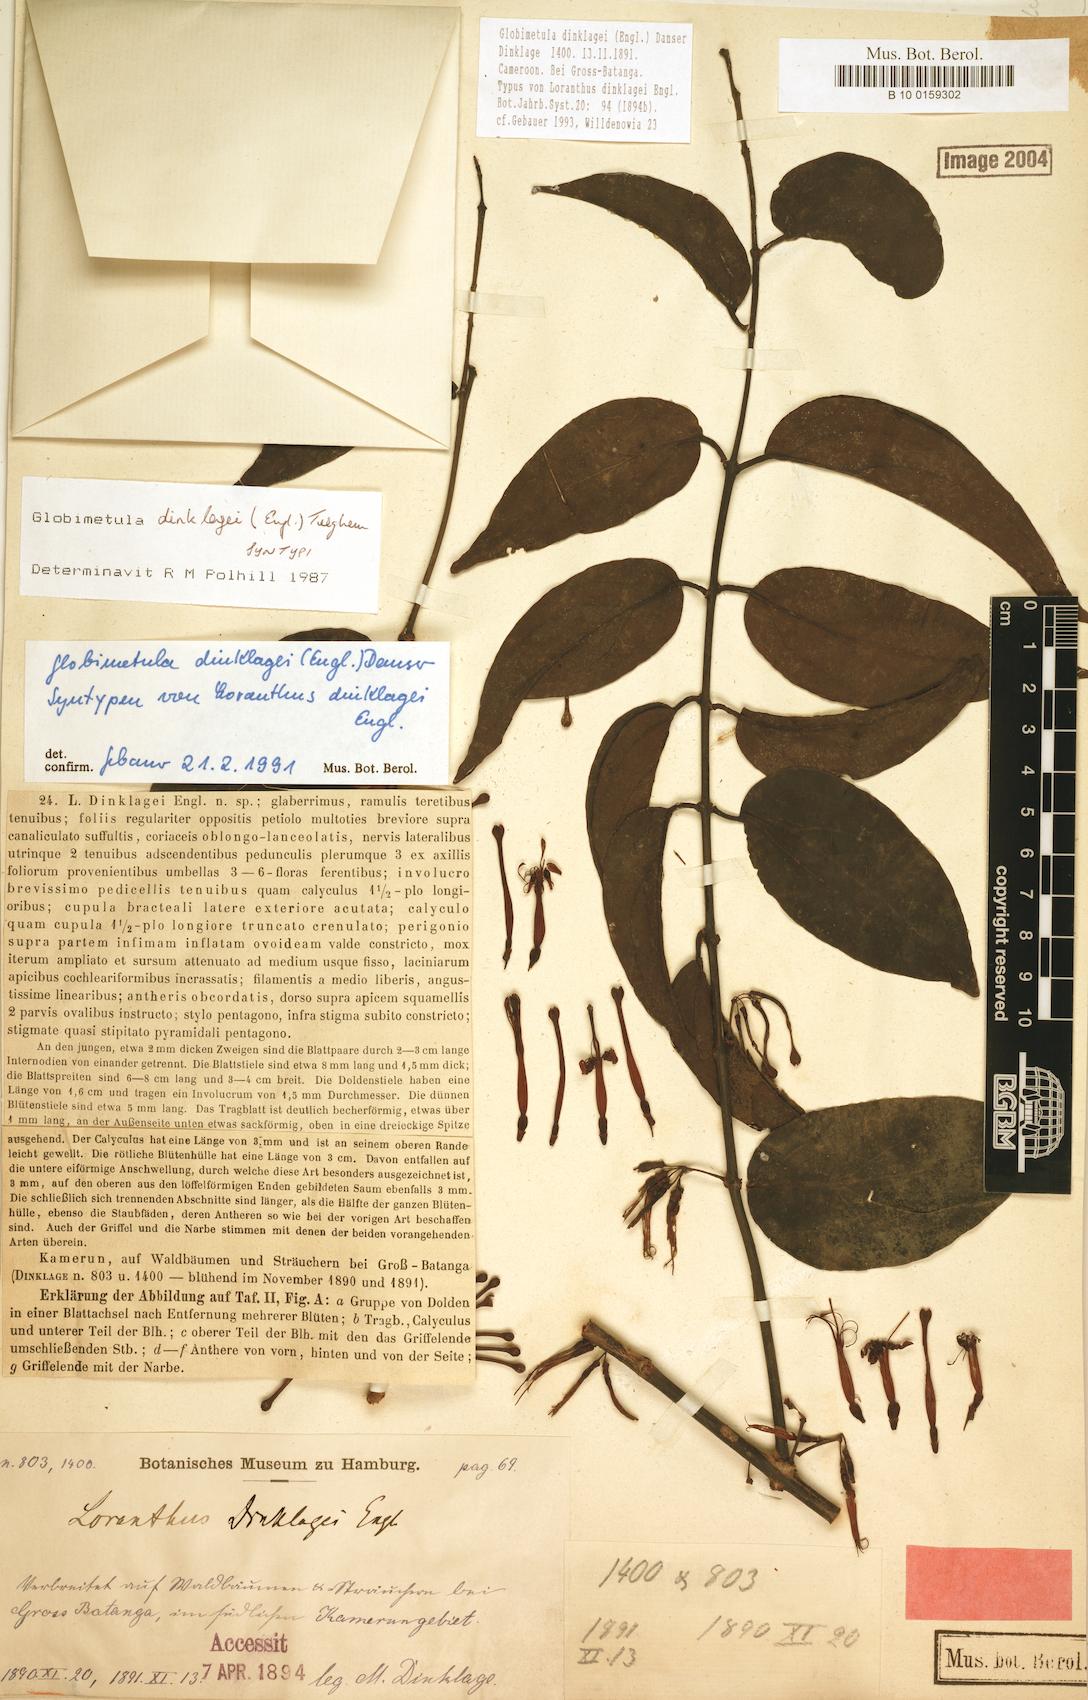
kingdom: Plantae
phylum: Tracheophyta
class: Magnoliopsida
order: Santalales
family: Loranthaceae
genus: Globimetula
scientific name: Globimetula dinklagei
